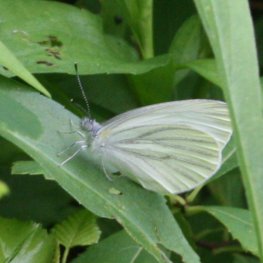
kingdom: Animalia
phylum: Arthropoda
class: Insecta
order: Lepidoptera
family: Pieridae
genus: Pieris
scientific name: Pieris oleracea
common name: Mustard White
